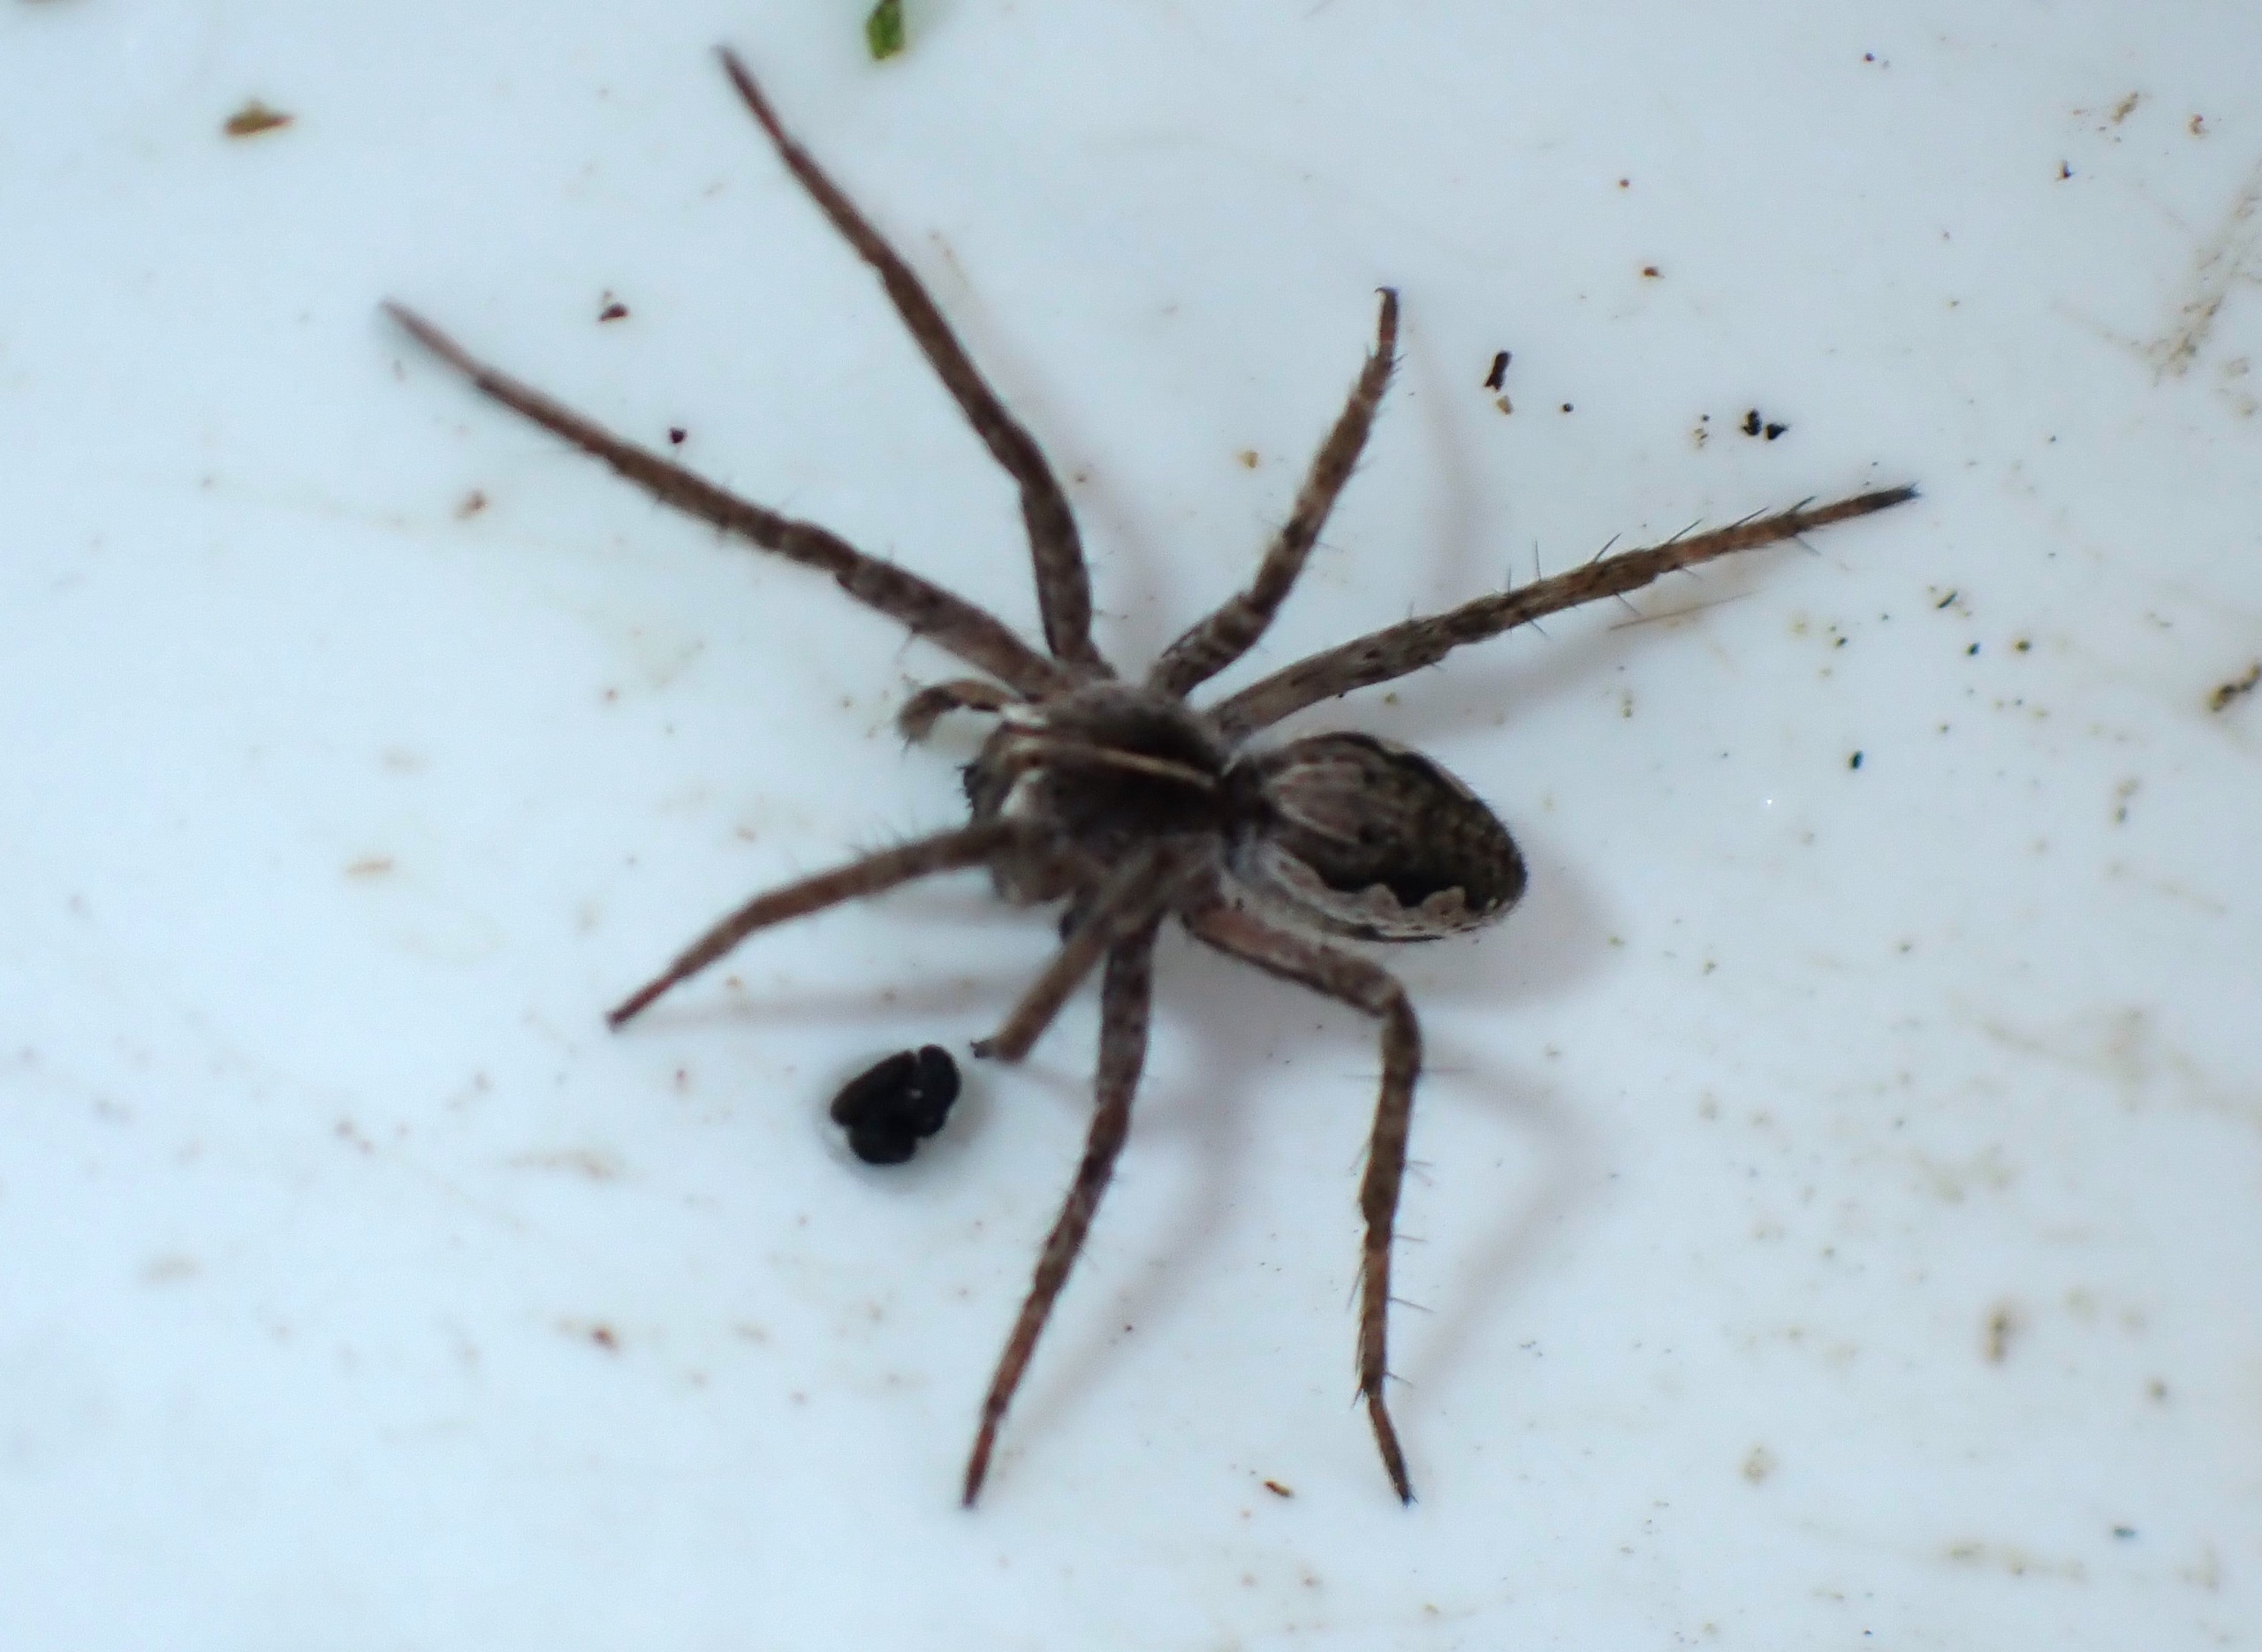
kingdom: Animalia
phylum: Arthropoda
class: Arachnida
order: Araneae
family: Pisauridae
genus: Pisaura
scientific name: Pisaura mirabilis
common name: Almindelig rovedderkop
